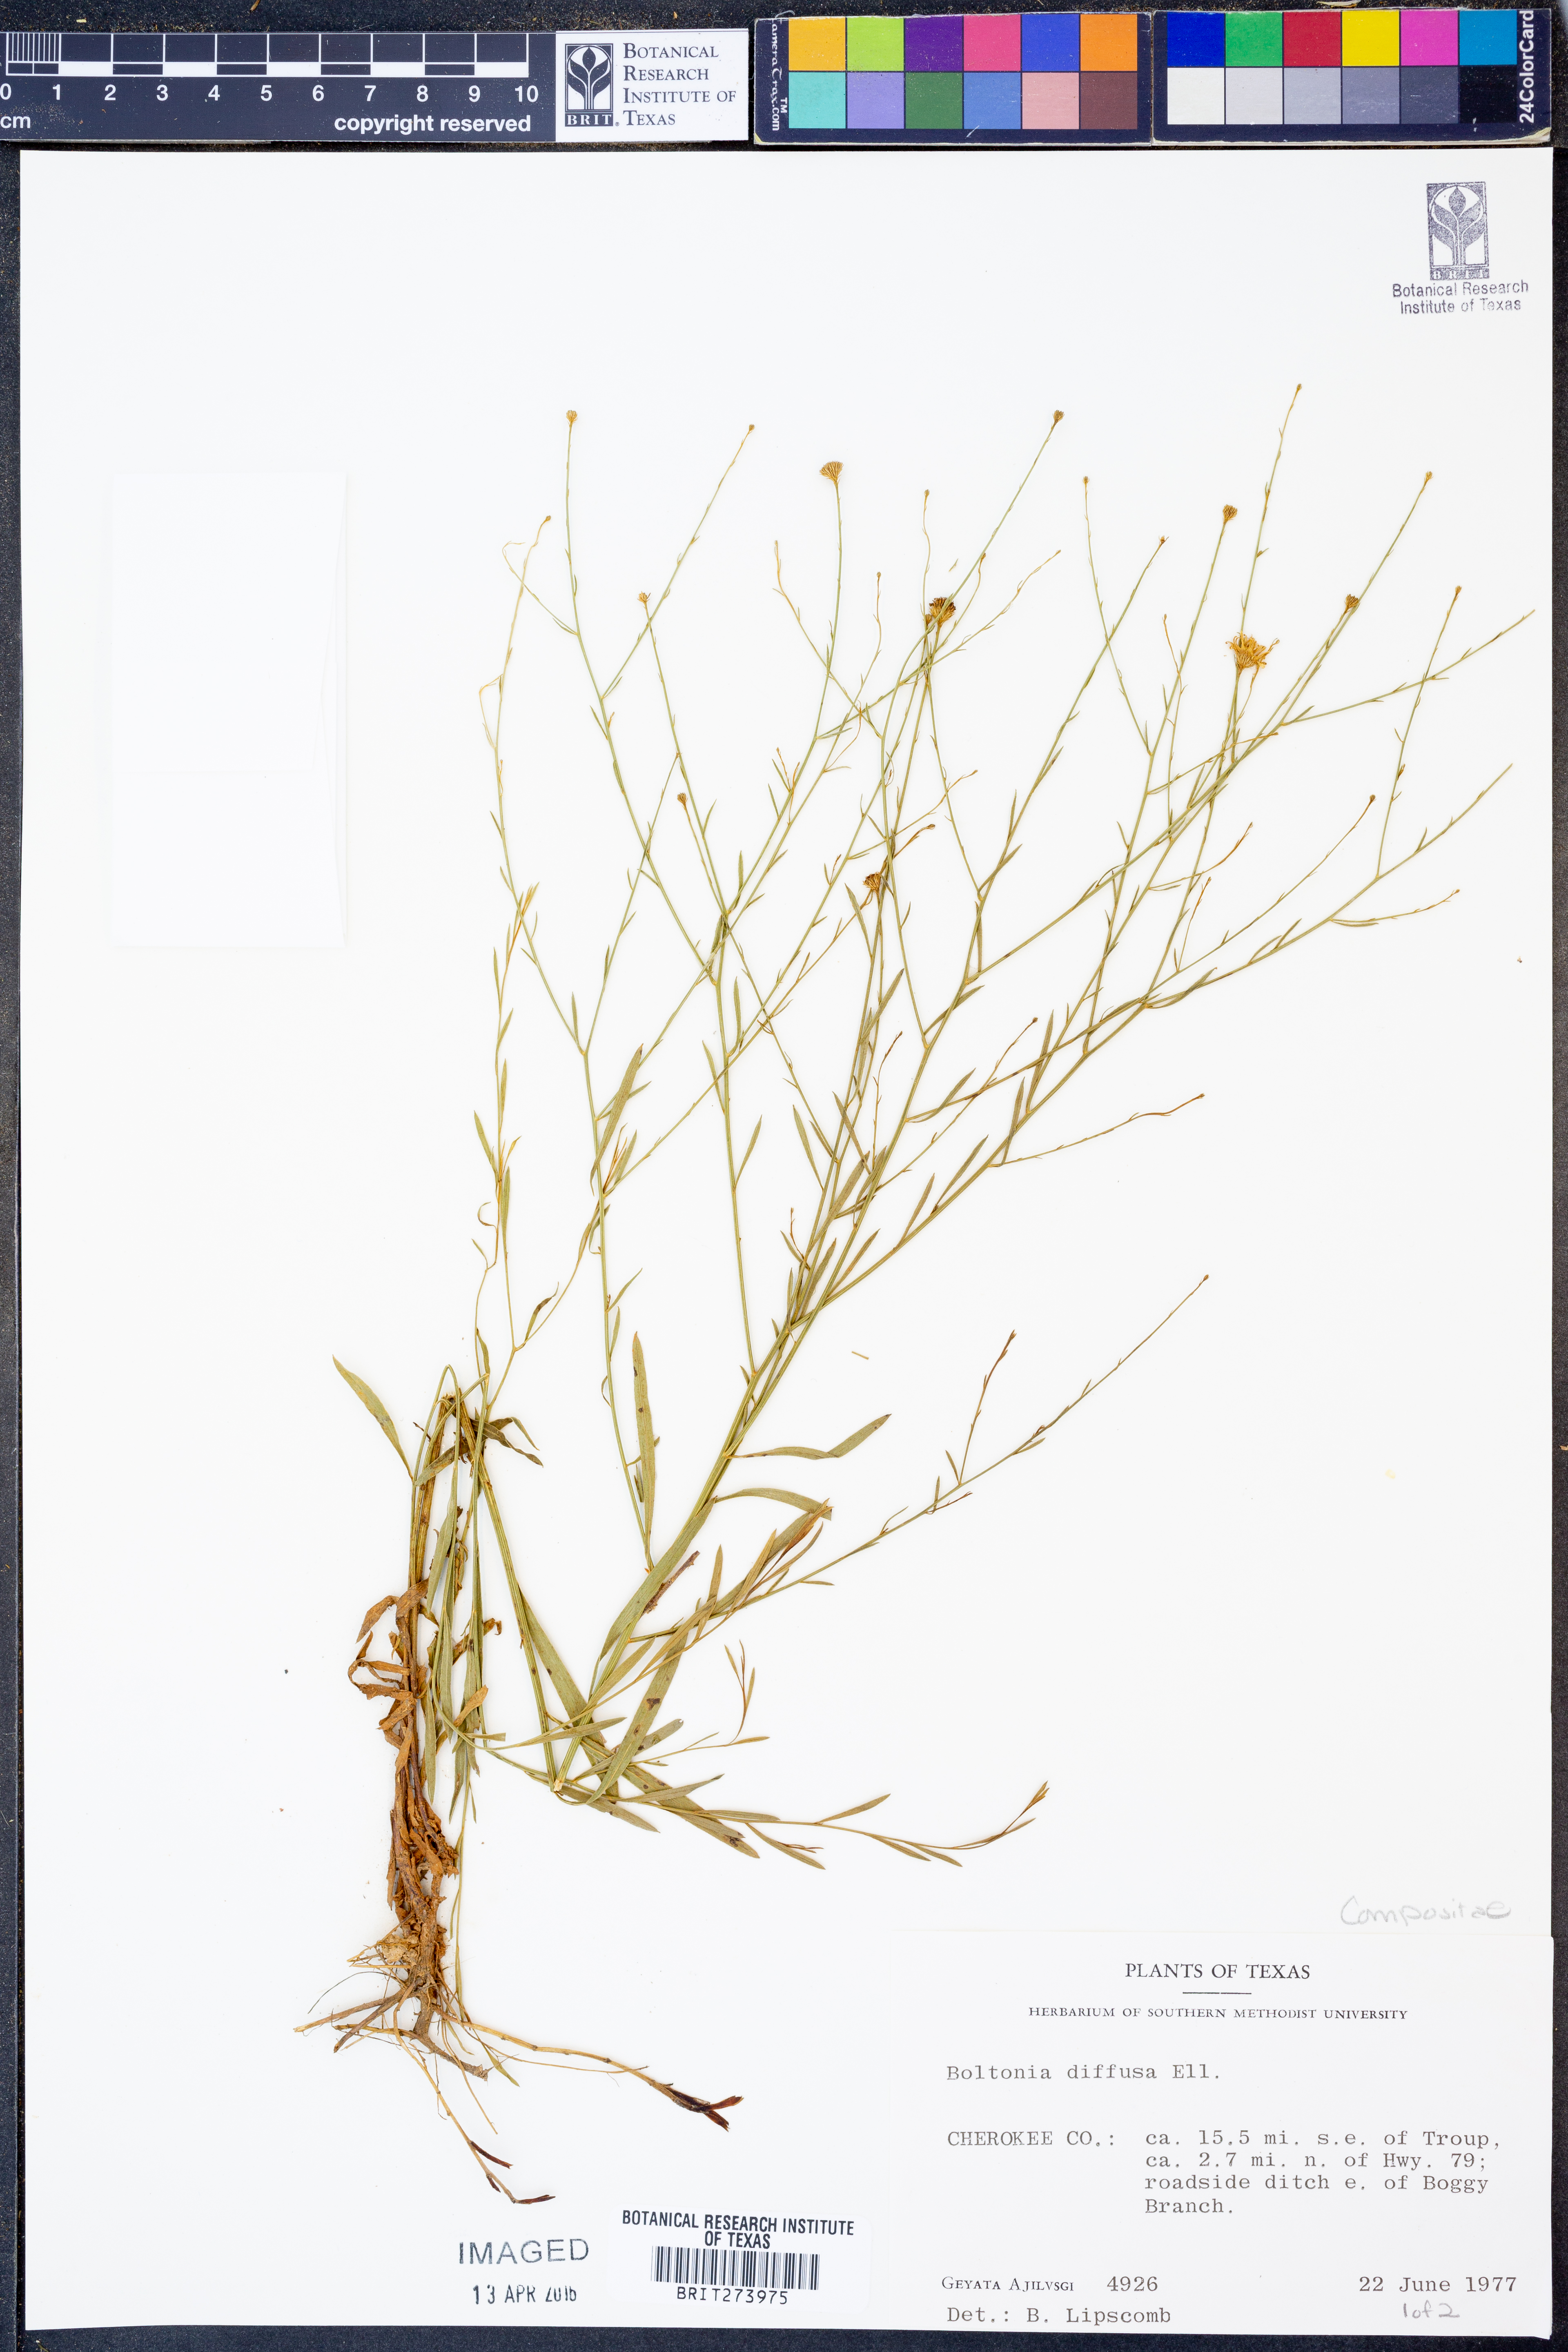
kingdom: Plantae
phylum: Tracheophyta
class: Magnoliopsida
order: Asterales
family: Asteraceae
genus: Boltonia
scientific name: Boltonia diffusa
